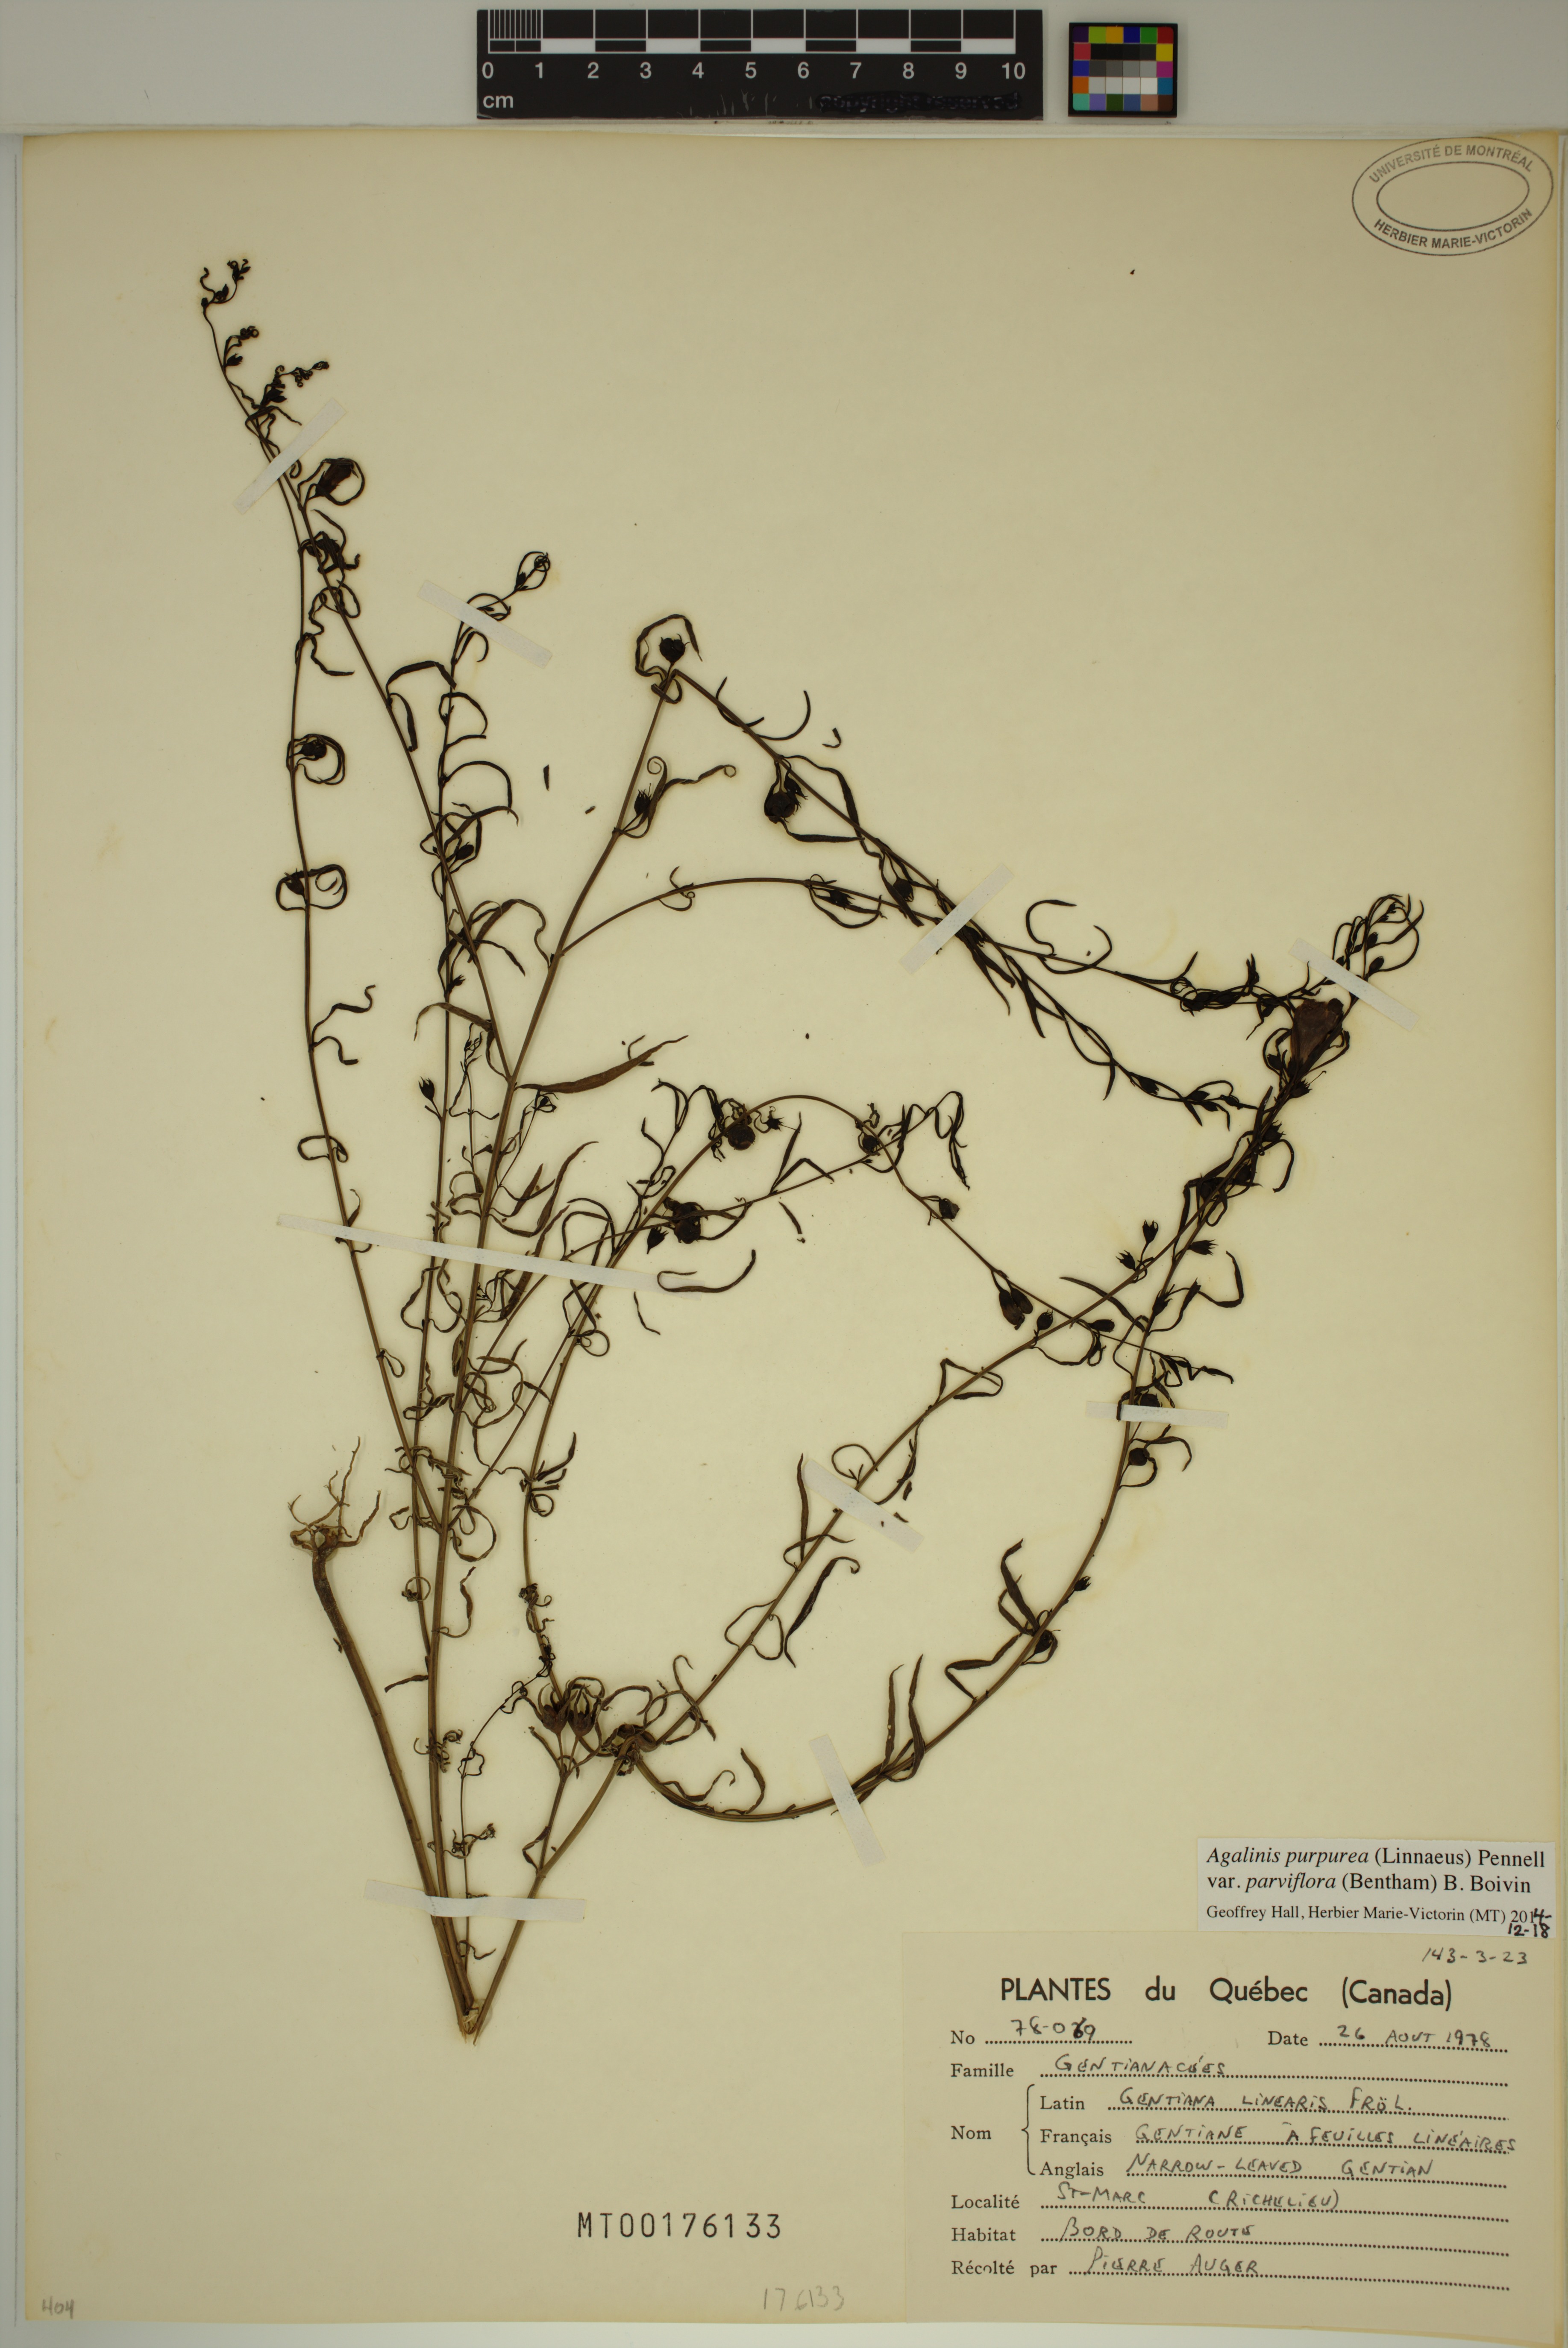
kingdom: Plantae
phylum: Tracheophyta
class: Magnoliopsida
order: Lamiales
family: Orobanchaceae
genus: Agalinis
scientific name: Agalinis purpurea
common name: Purple false foxglove
